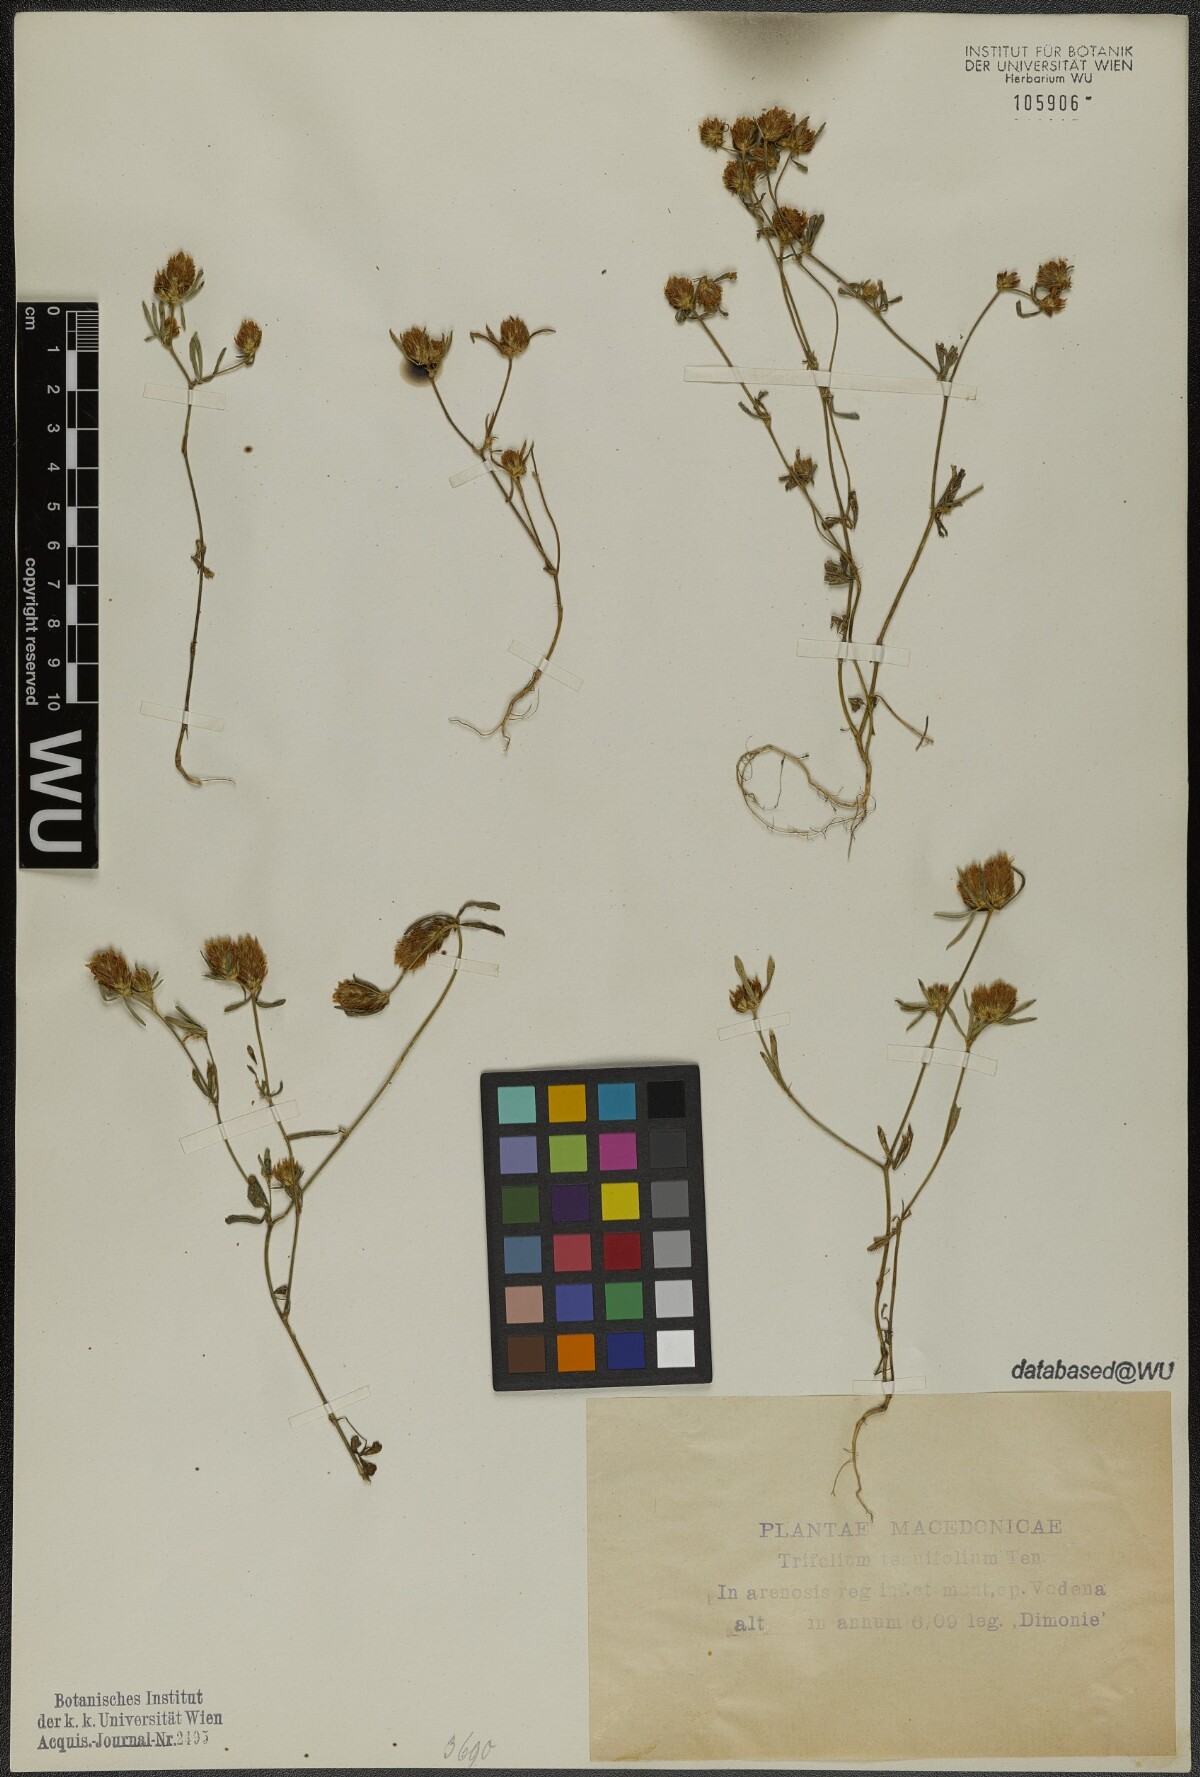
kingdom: Plantae
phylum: Tracheophyta
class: Magnoliopsida
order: Fabales
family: Fabaceae
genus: Trifolium
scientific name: Trifolium tenuifolium
